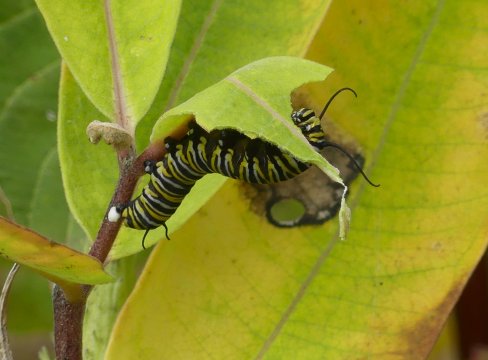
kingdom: Animalia
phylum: Arthropoda
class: Insecta
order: Lepidoptera
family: Nymphalidae
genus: Danaus
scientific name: Danaus plexippus
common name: Monarch
